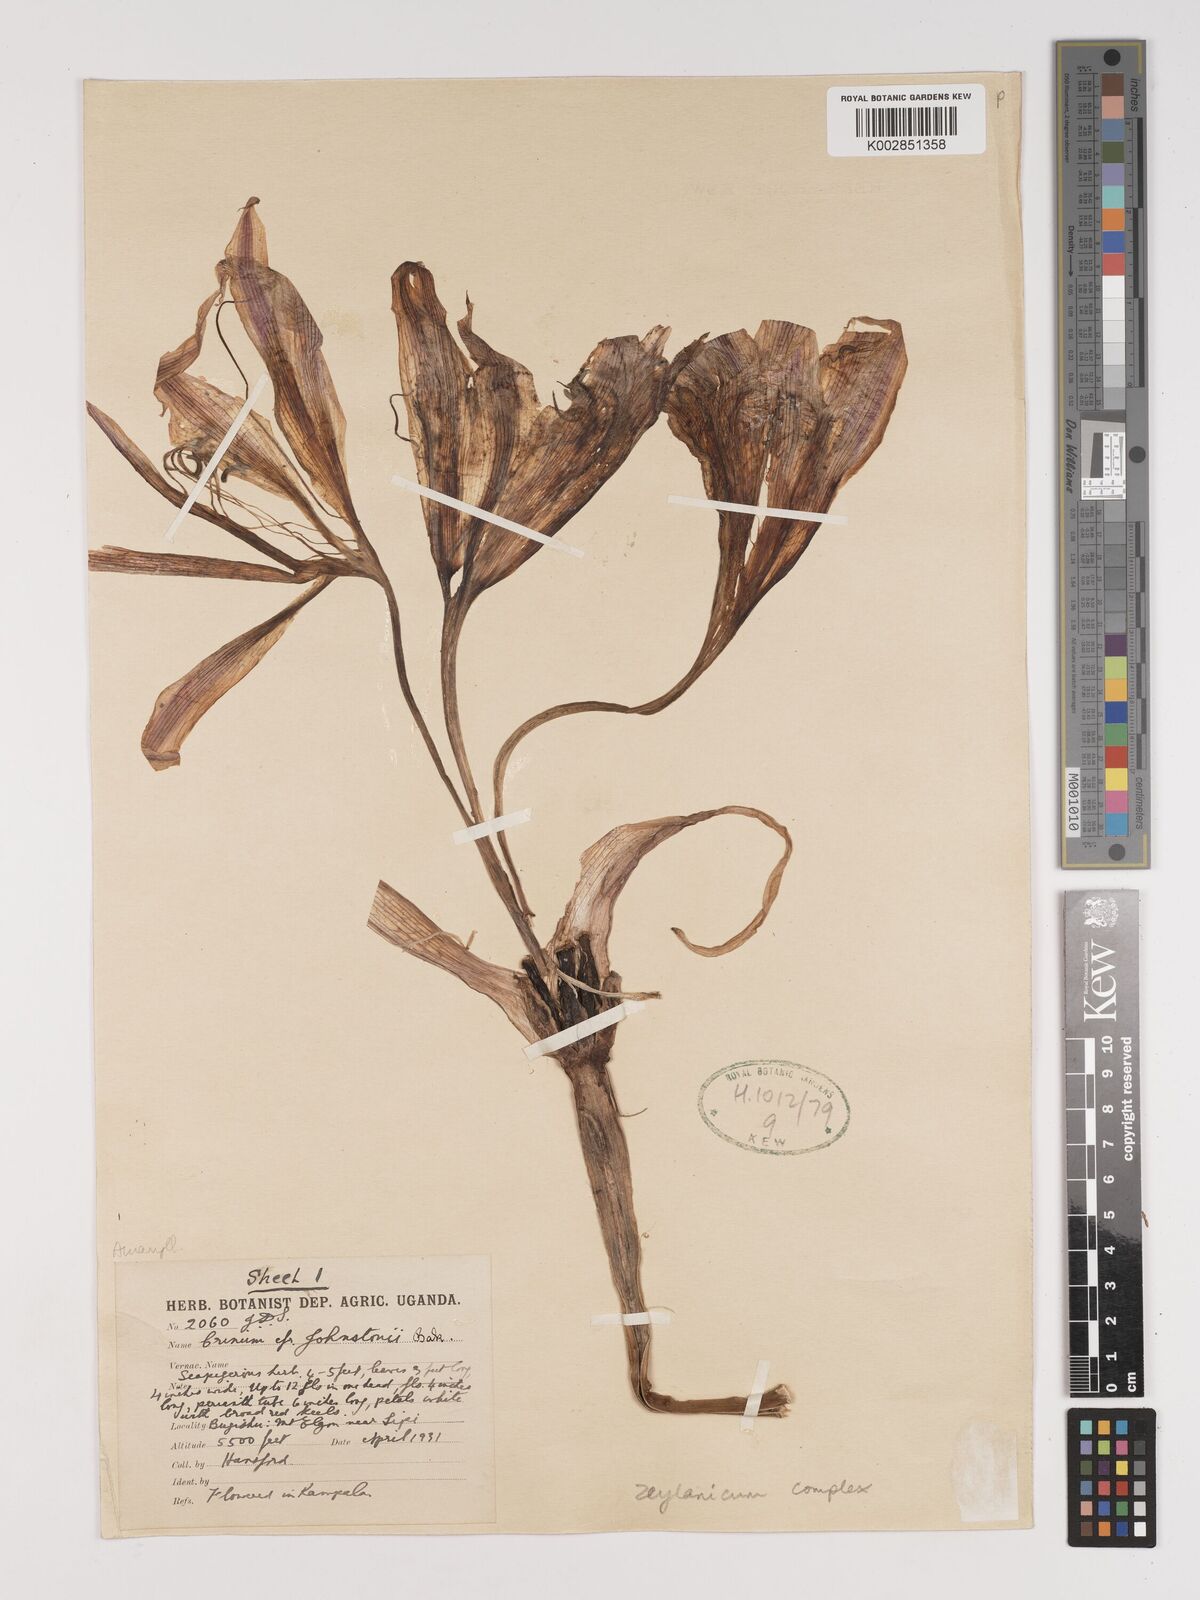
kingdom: Plantae
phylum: Tracheophyta
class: Liliopsida
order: Asparagales
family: Amaryllidaceae
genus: Crinum
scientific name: Crinum zeylanicum
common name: Ceylon swamplily
